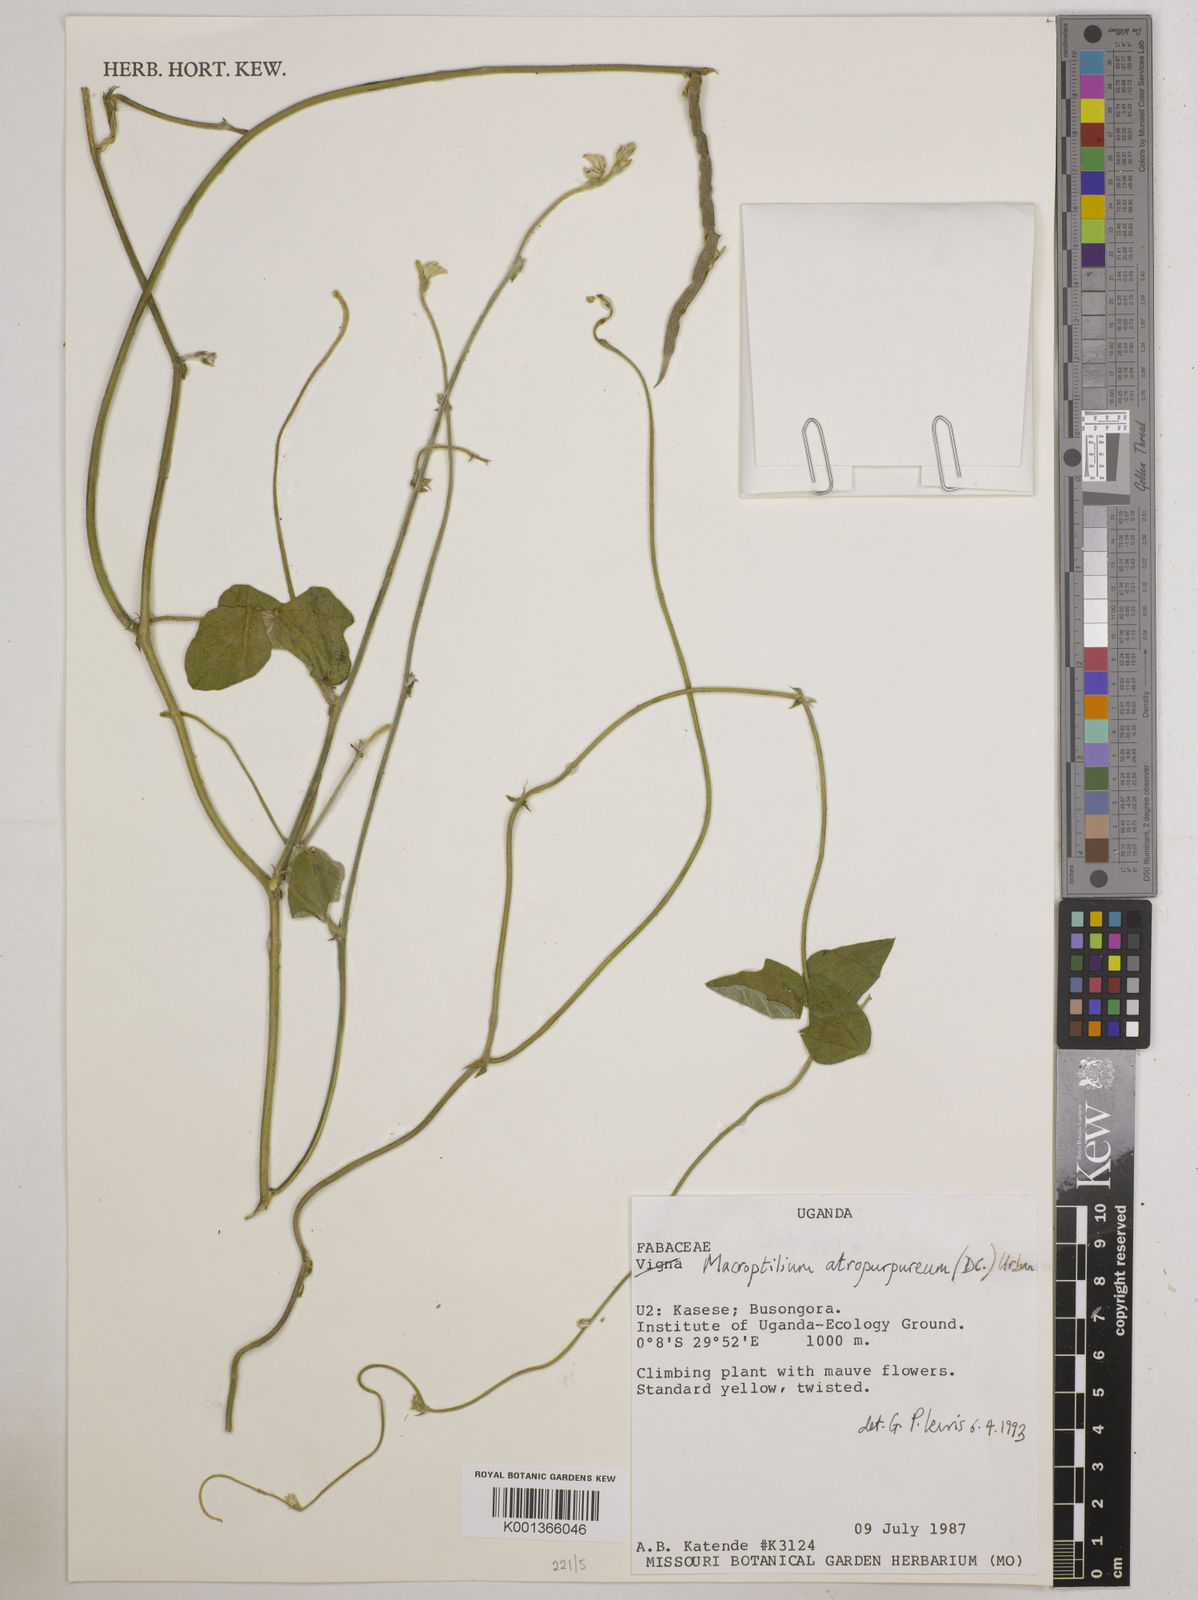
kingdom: Plantae
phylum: Tracheophyta
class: Magnoliopsida
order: Fabales
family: Fabaceae
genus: Macroptilium
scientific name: Macroptilium atropurpureum
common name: Purple bushbean
